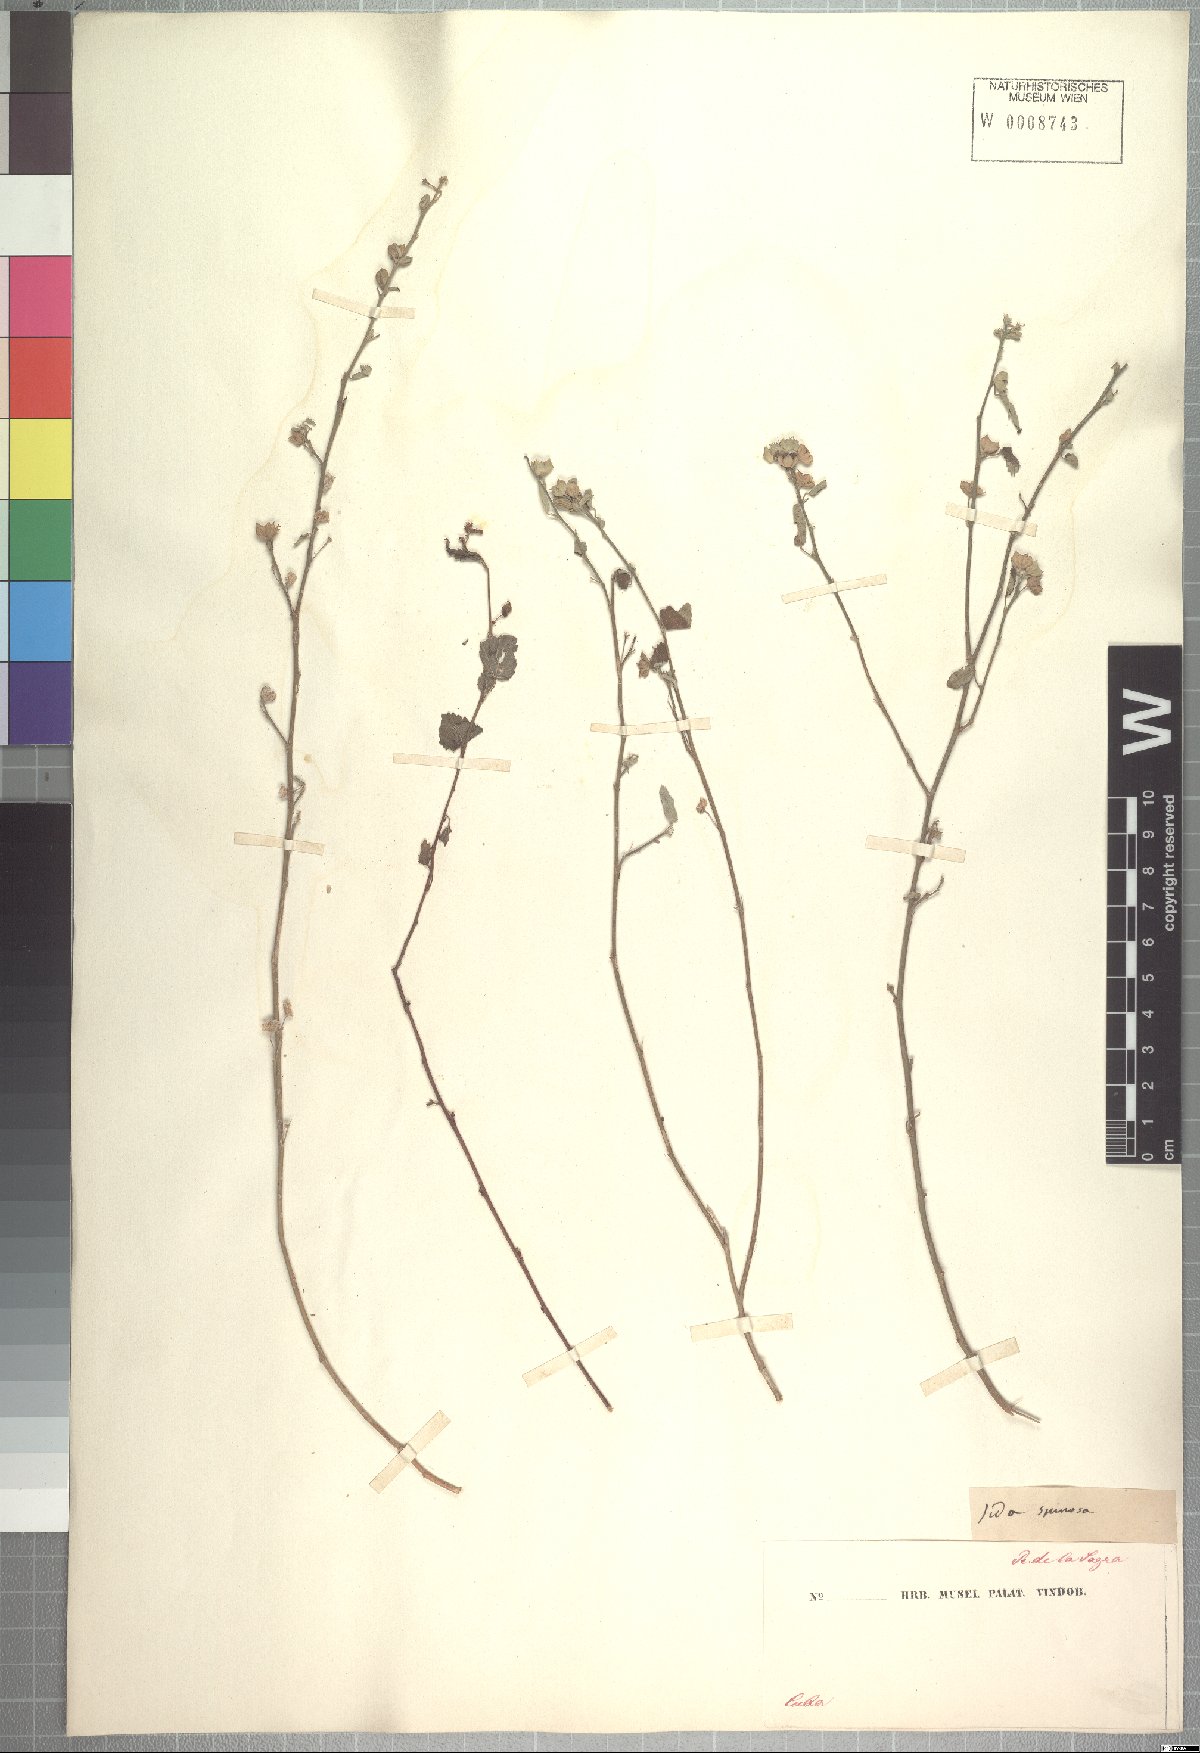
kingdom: Plantae
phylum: Tracheophyta
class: Magnoliopsida
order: Malvales
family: Malvaceae
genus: Sida
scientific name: Sida spinosa
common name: Prickly fanpetals
